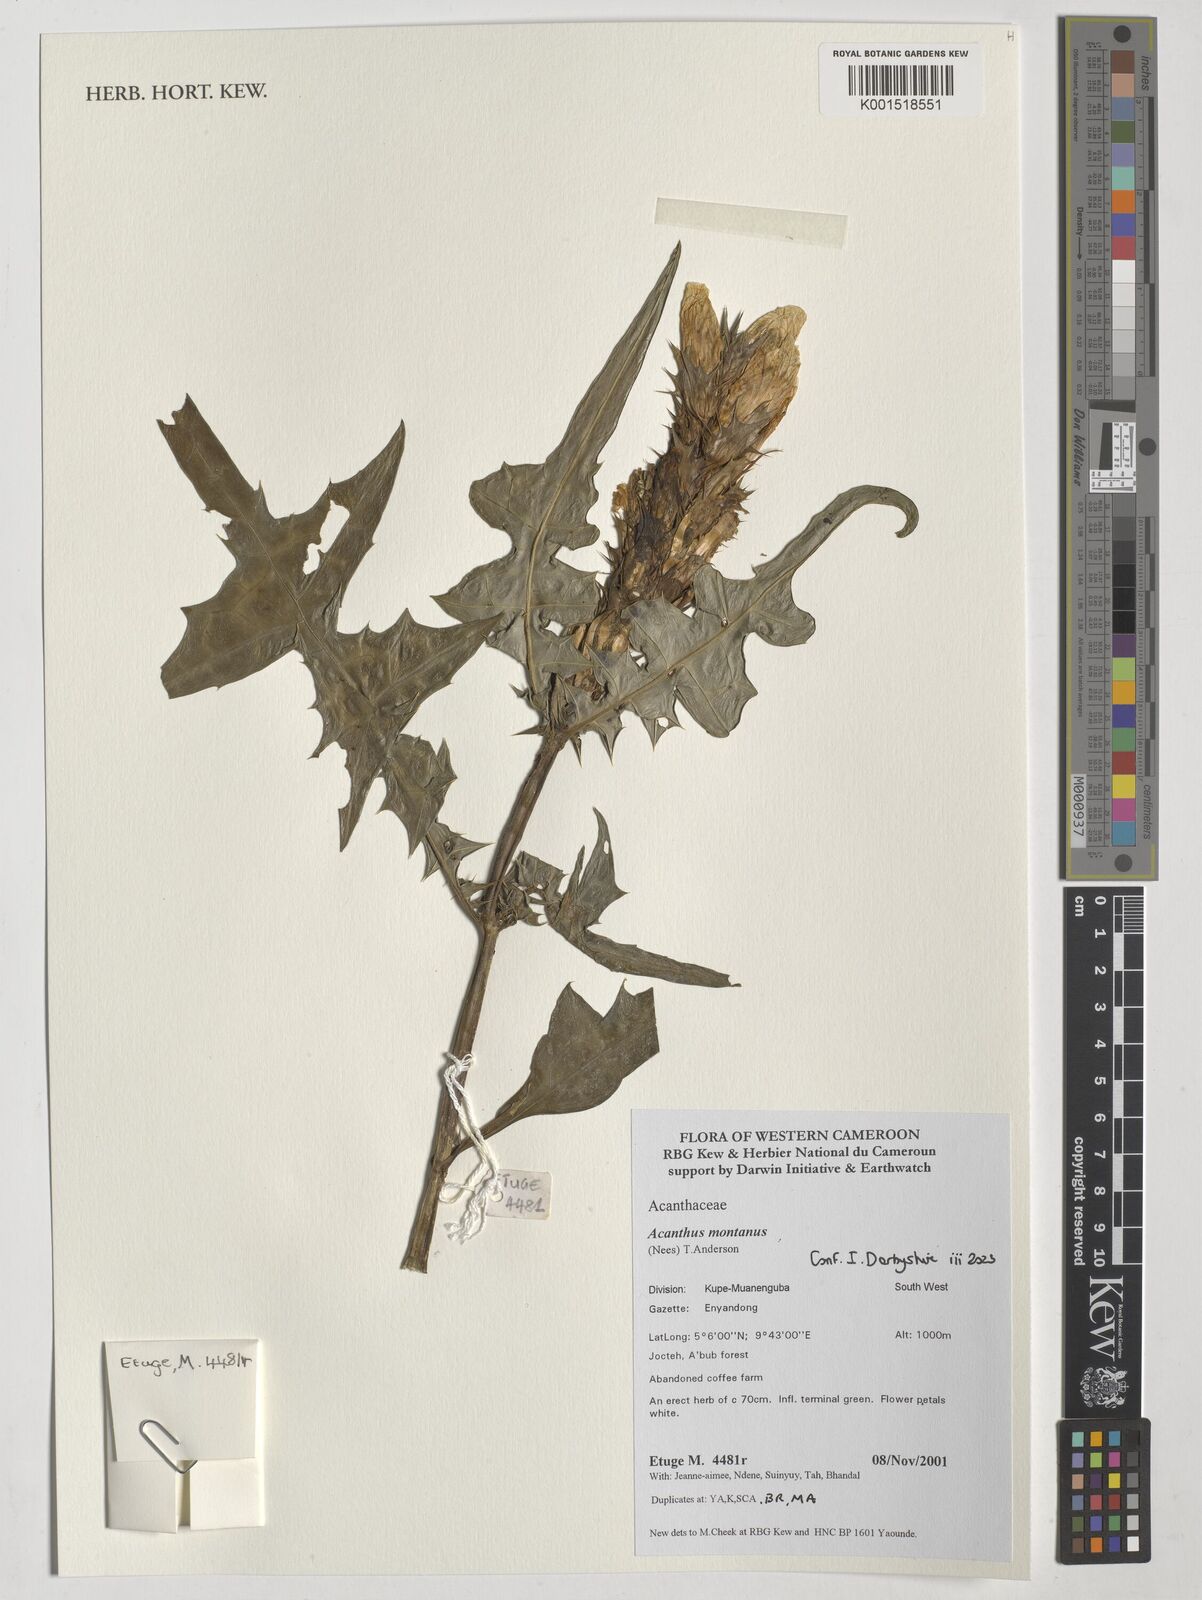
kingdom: Plantae
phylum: Tracheophyta
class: Magnoliopsida
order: Lamiales
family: Acanthaceae
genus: Acanthus
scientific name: Acanthus montanus
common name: Mountain thistle
